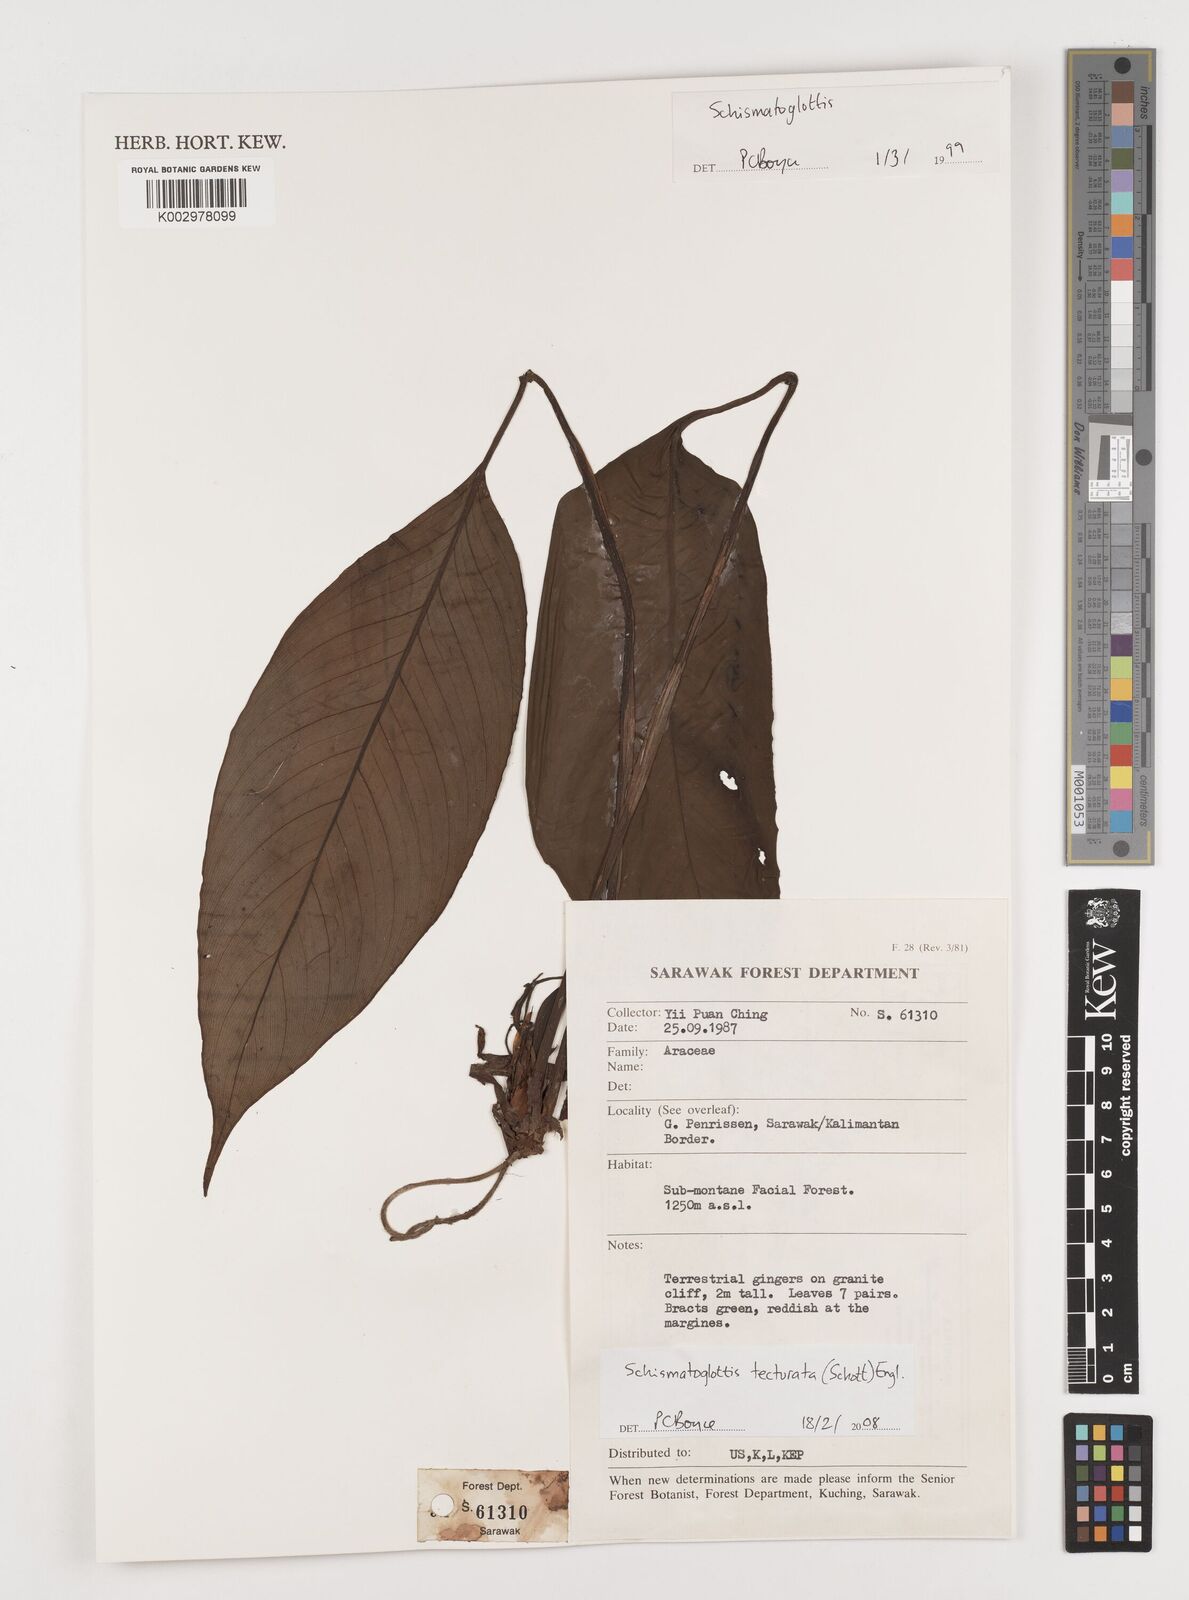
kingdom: Plantae
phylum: Tracheophyta
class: Liliopsida
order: Zingiberales
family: Costaceae
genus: Colobogynium
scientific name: Colobogynium variegatum
